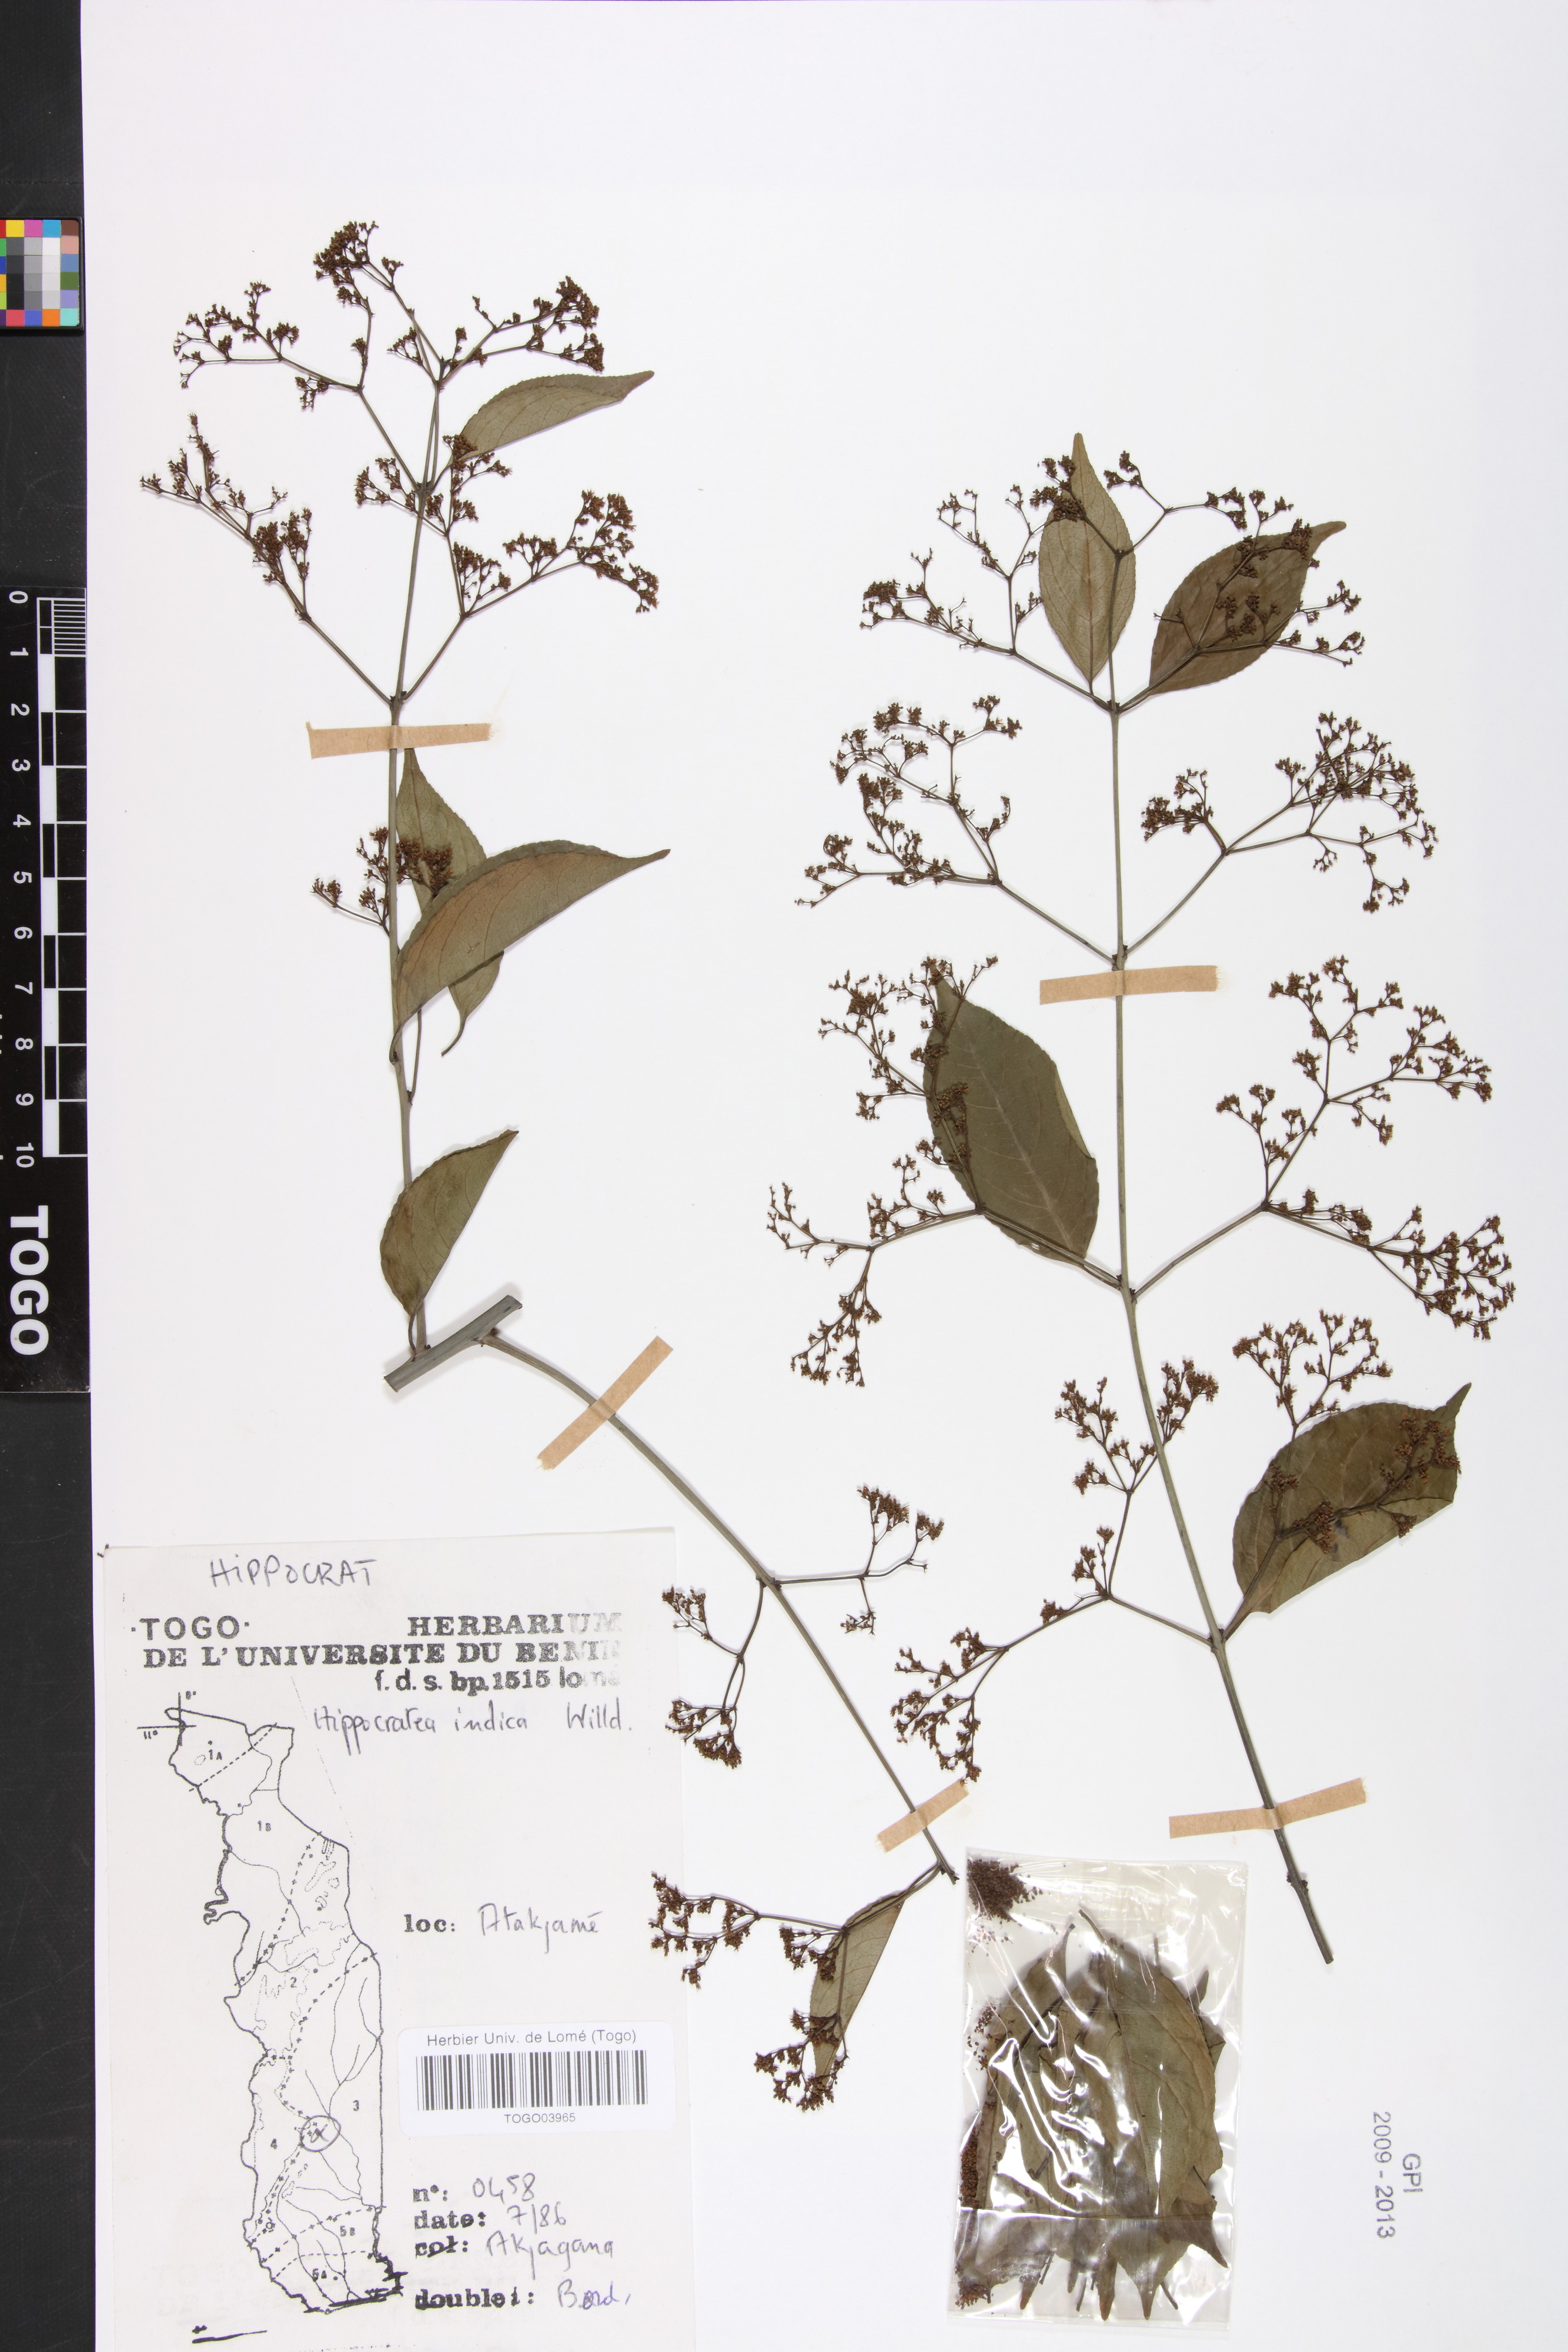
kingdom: Plantae
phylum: Tracheophyta
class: Magnoliopsida
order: Celastrales
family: Celastraceae
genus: Reissantia
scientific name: Reissantia indica
